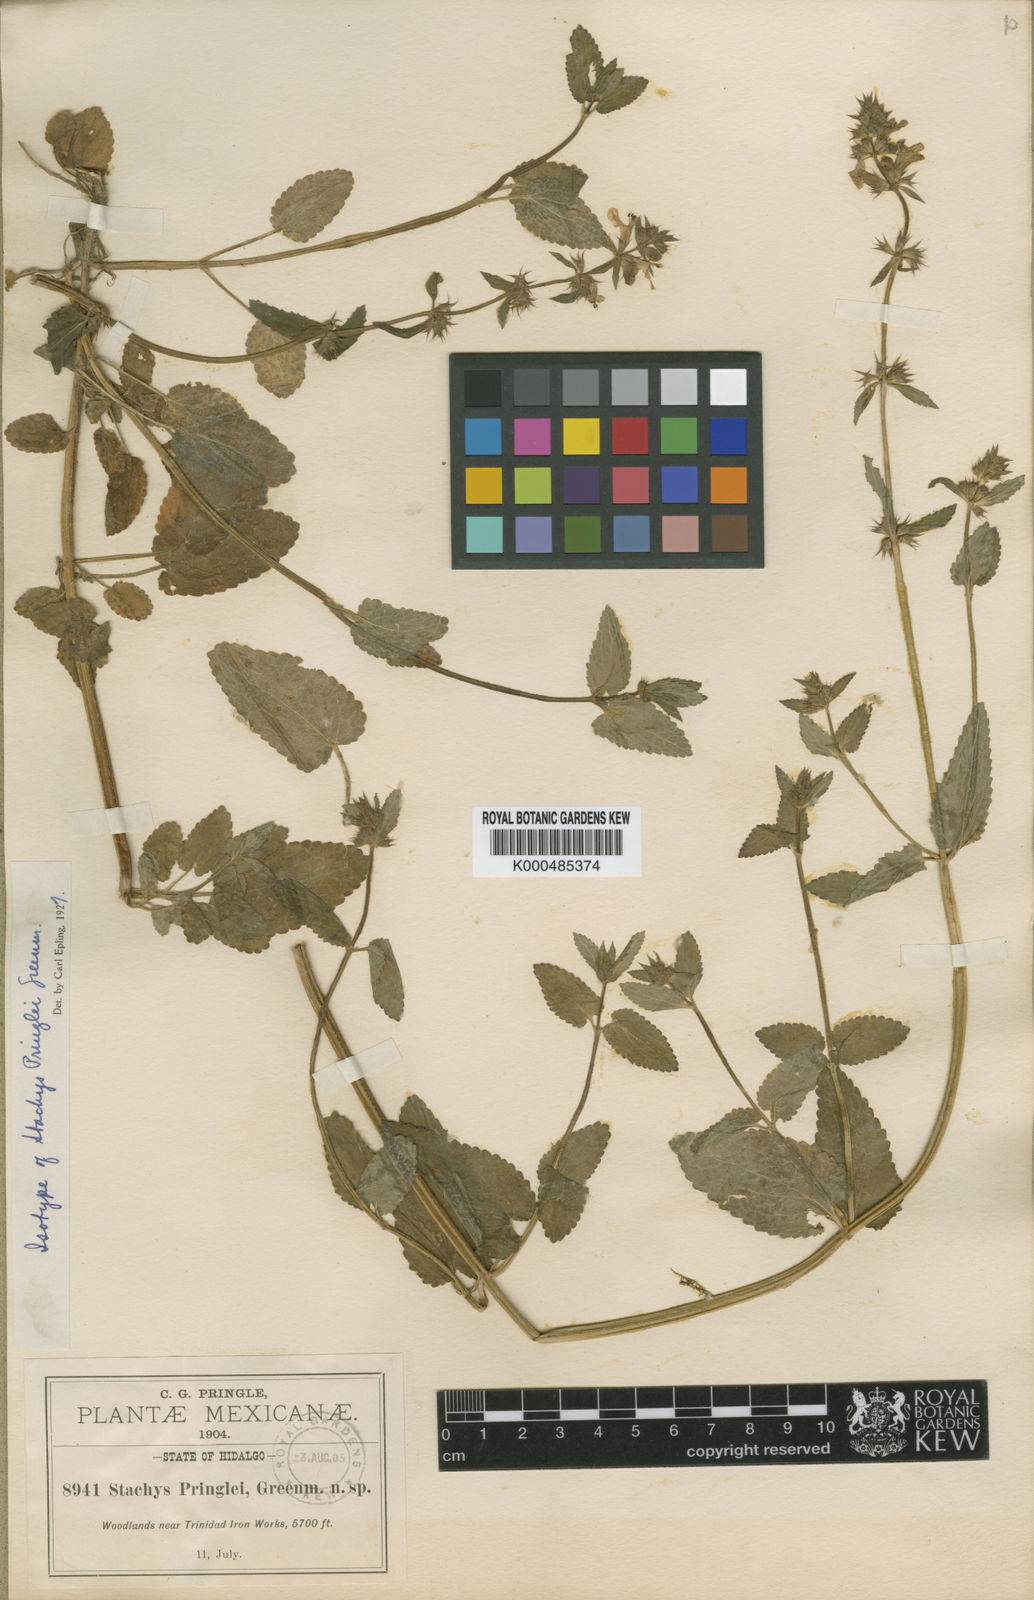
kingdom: Plantae
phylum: Tracheophyta
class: Magnoliopsida
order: Lamiales
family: Lamiaceae
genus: Stachys
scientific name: Stachys pringlei
